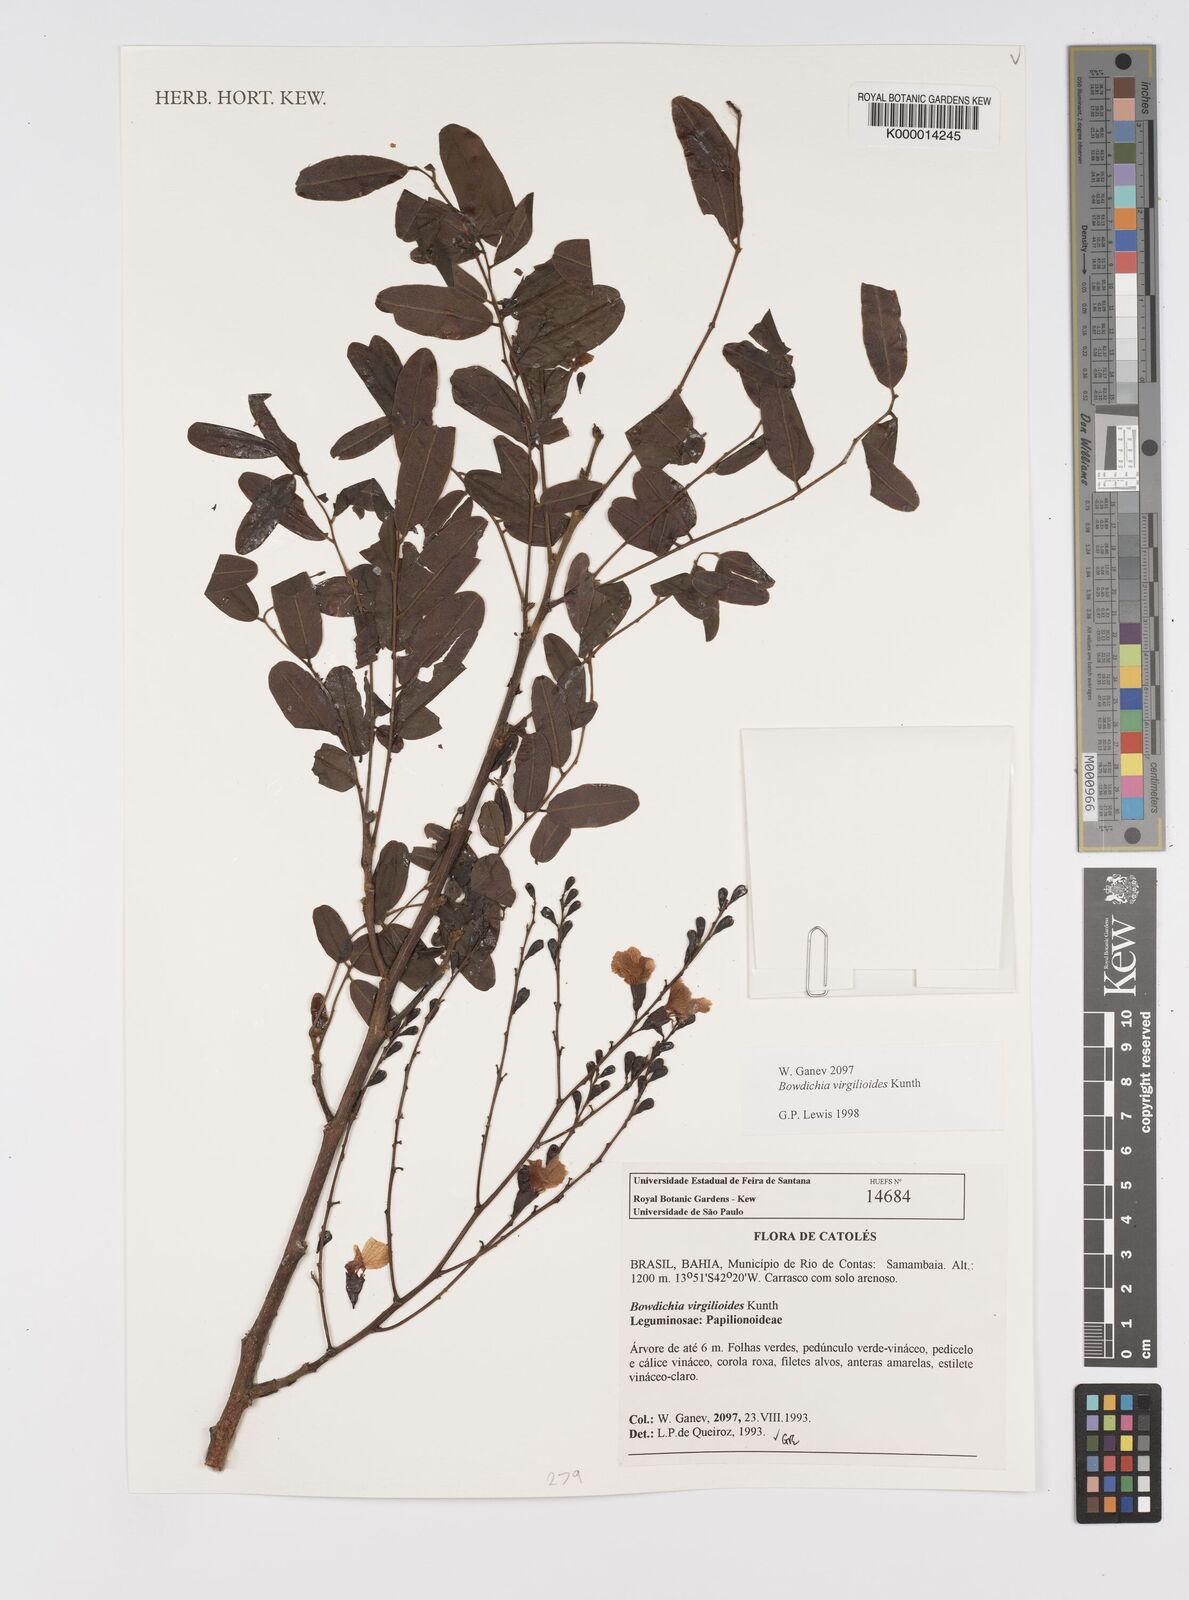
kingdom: Plantae
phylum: Tracheophyta
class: Magnoliopsida
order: Fabales
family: Fabaceae
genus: Bowdichia
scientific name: Bowdichia virgilioides
